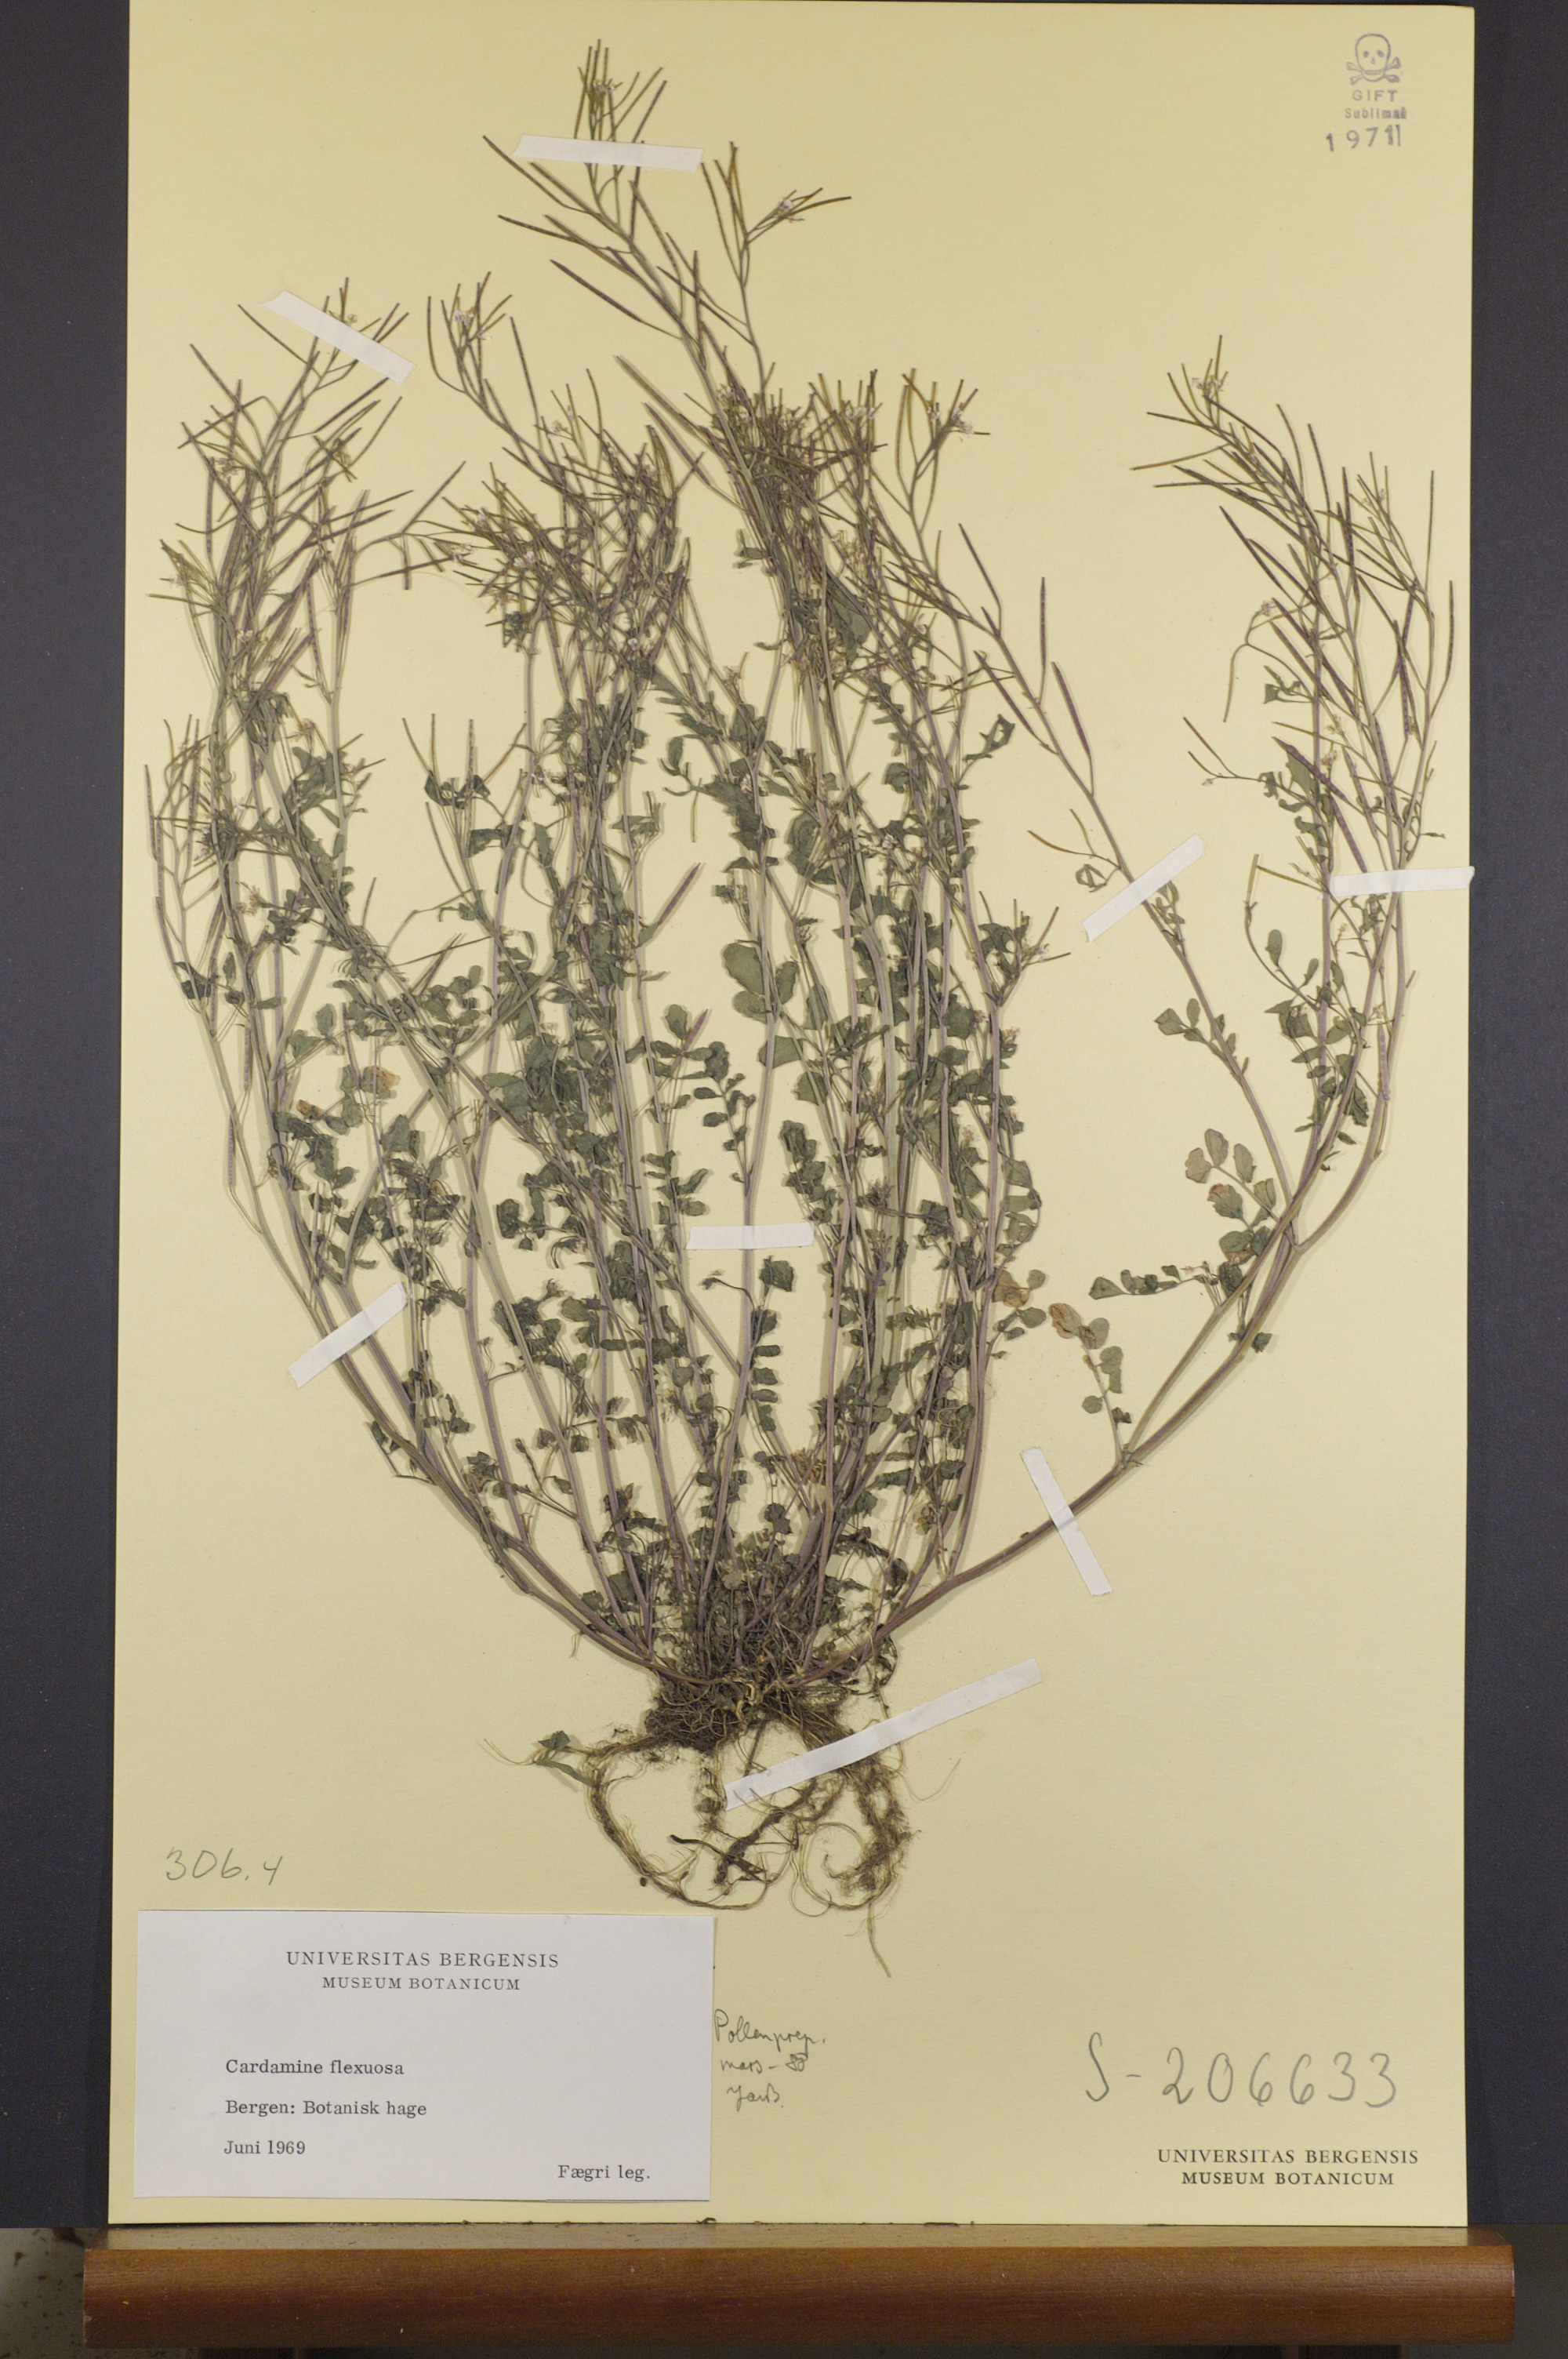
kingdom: Plantae
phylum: Tracheophyta
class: Magnoliopsida
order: Brassicales
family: Brassicaceae
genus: Cardamine
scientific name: Cardamine flexuosa
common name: Woodland bittercress
